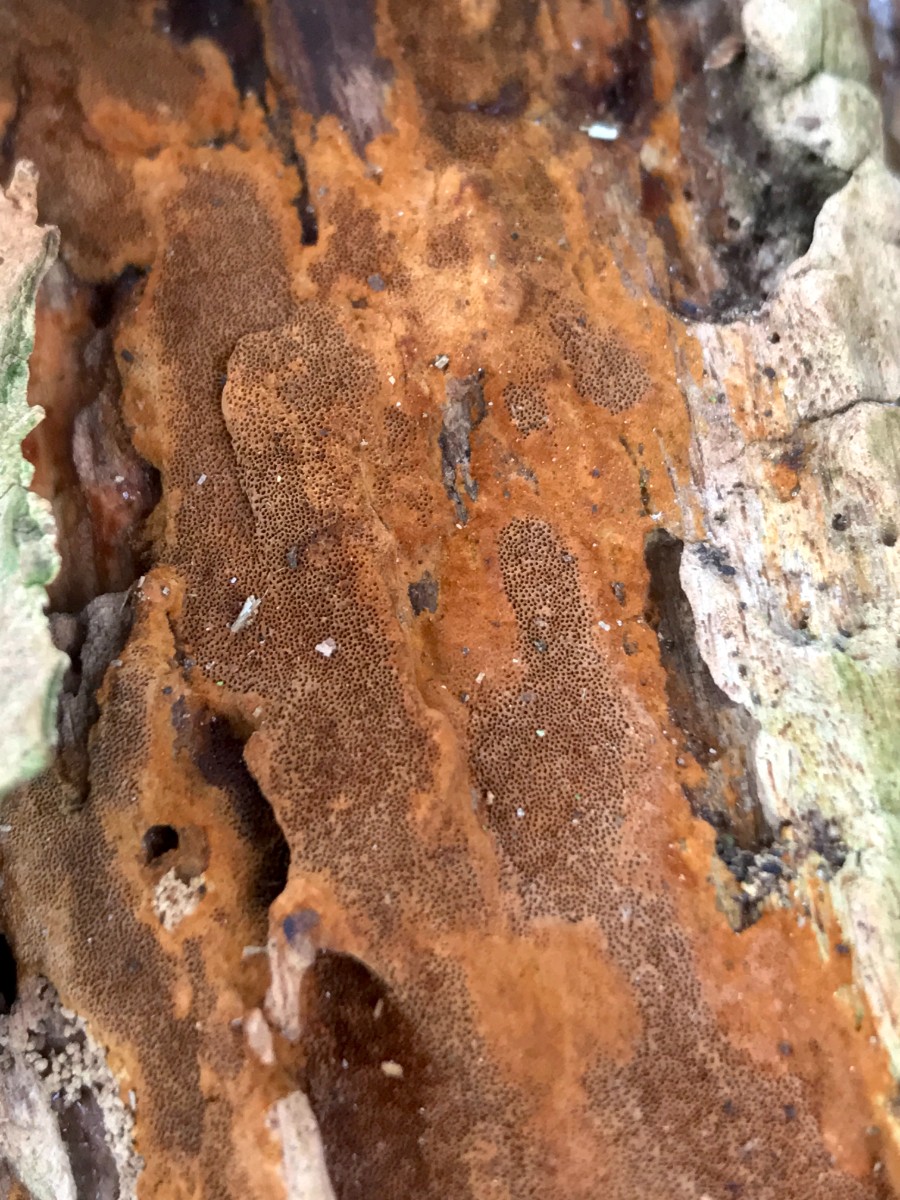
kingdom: Fungi
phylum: Basidiomycota
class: Agaricomycetes
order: Hymenochaetales
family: Hymenochaetaceae
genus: Fuscoporia
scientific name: Fuscoporia ferrea
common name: skorpe-ildporesvamp
